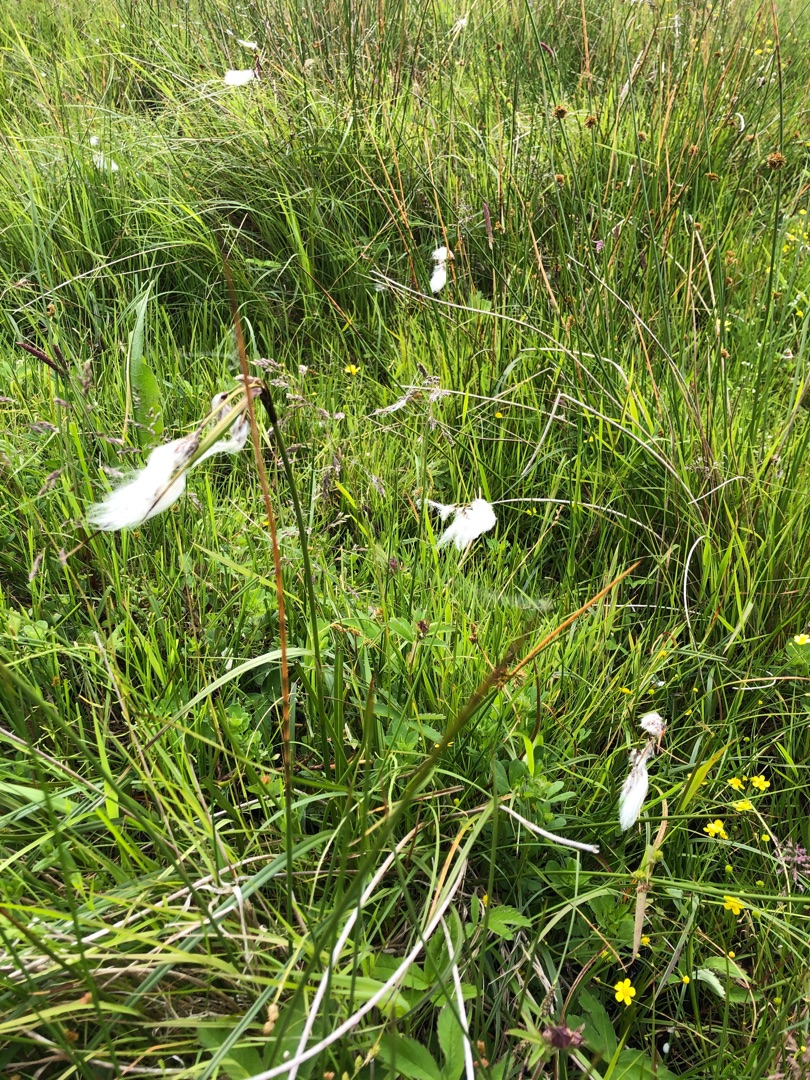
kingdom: Plantae
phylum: Tracheophyta
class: Liliopsida
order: Poales
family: Cyperaceae
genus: Eriophorum
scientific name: Eriophorum angustifolium
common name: Smalbladet kæruld
